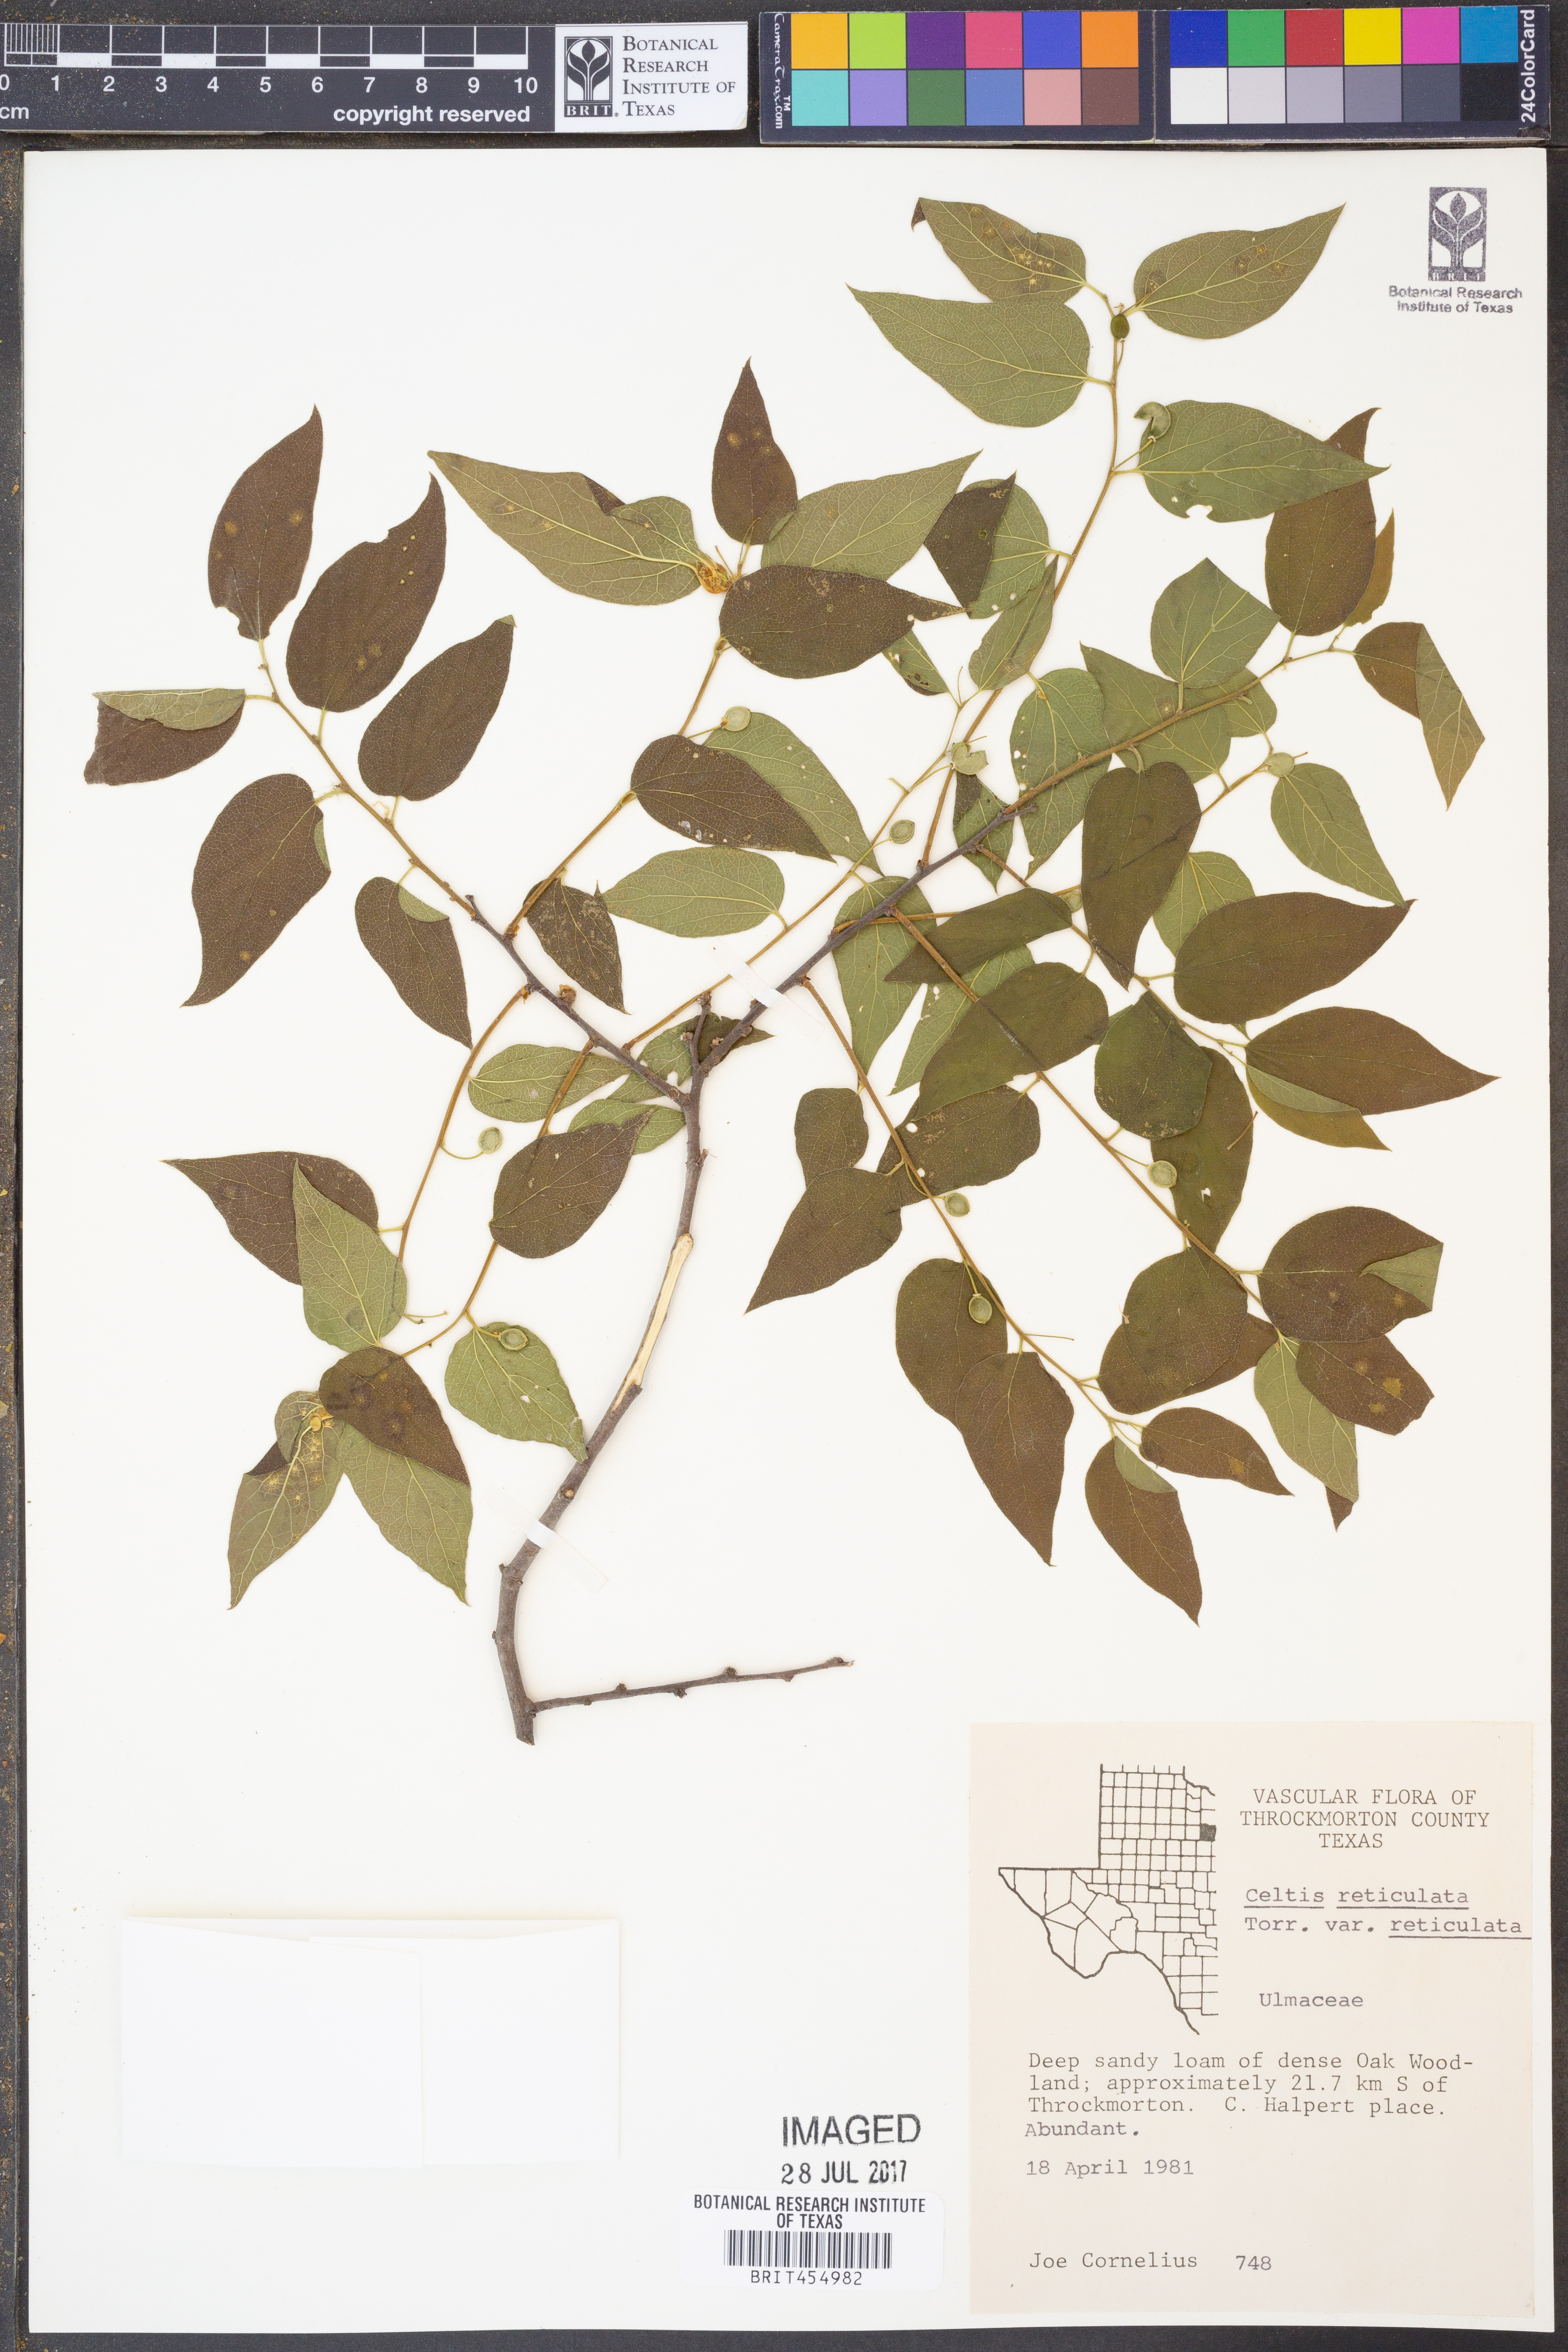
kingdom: Plantae
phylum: Tracheophyta
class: Magnoliopsida
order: Rosales
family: Cannabaceae
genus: Celtis
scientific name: Celtis reticulata
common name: Netleaf hackberry
